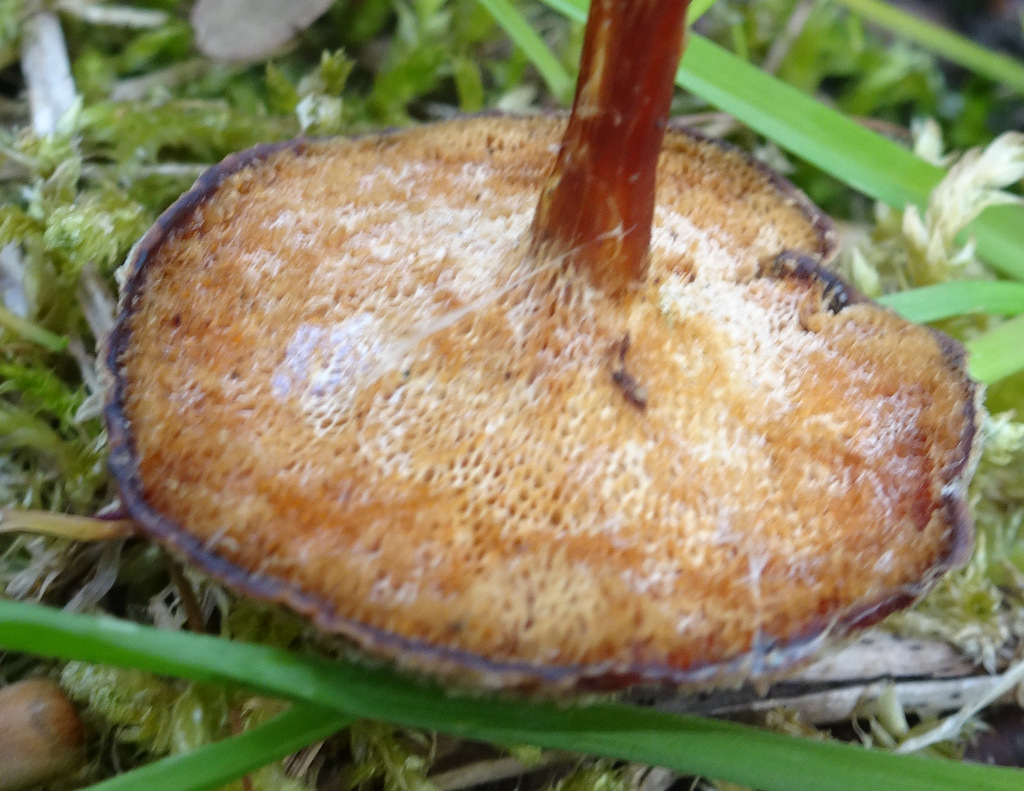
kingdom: Fungi
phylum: Basidiomycota
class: Agaricomycetes
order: Polyporales
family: Polyporaceae
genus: Lentinus
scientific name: Lentinus brumalis
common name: vinter-stilkporesvamp
